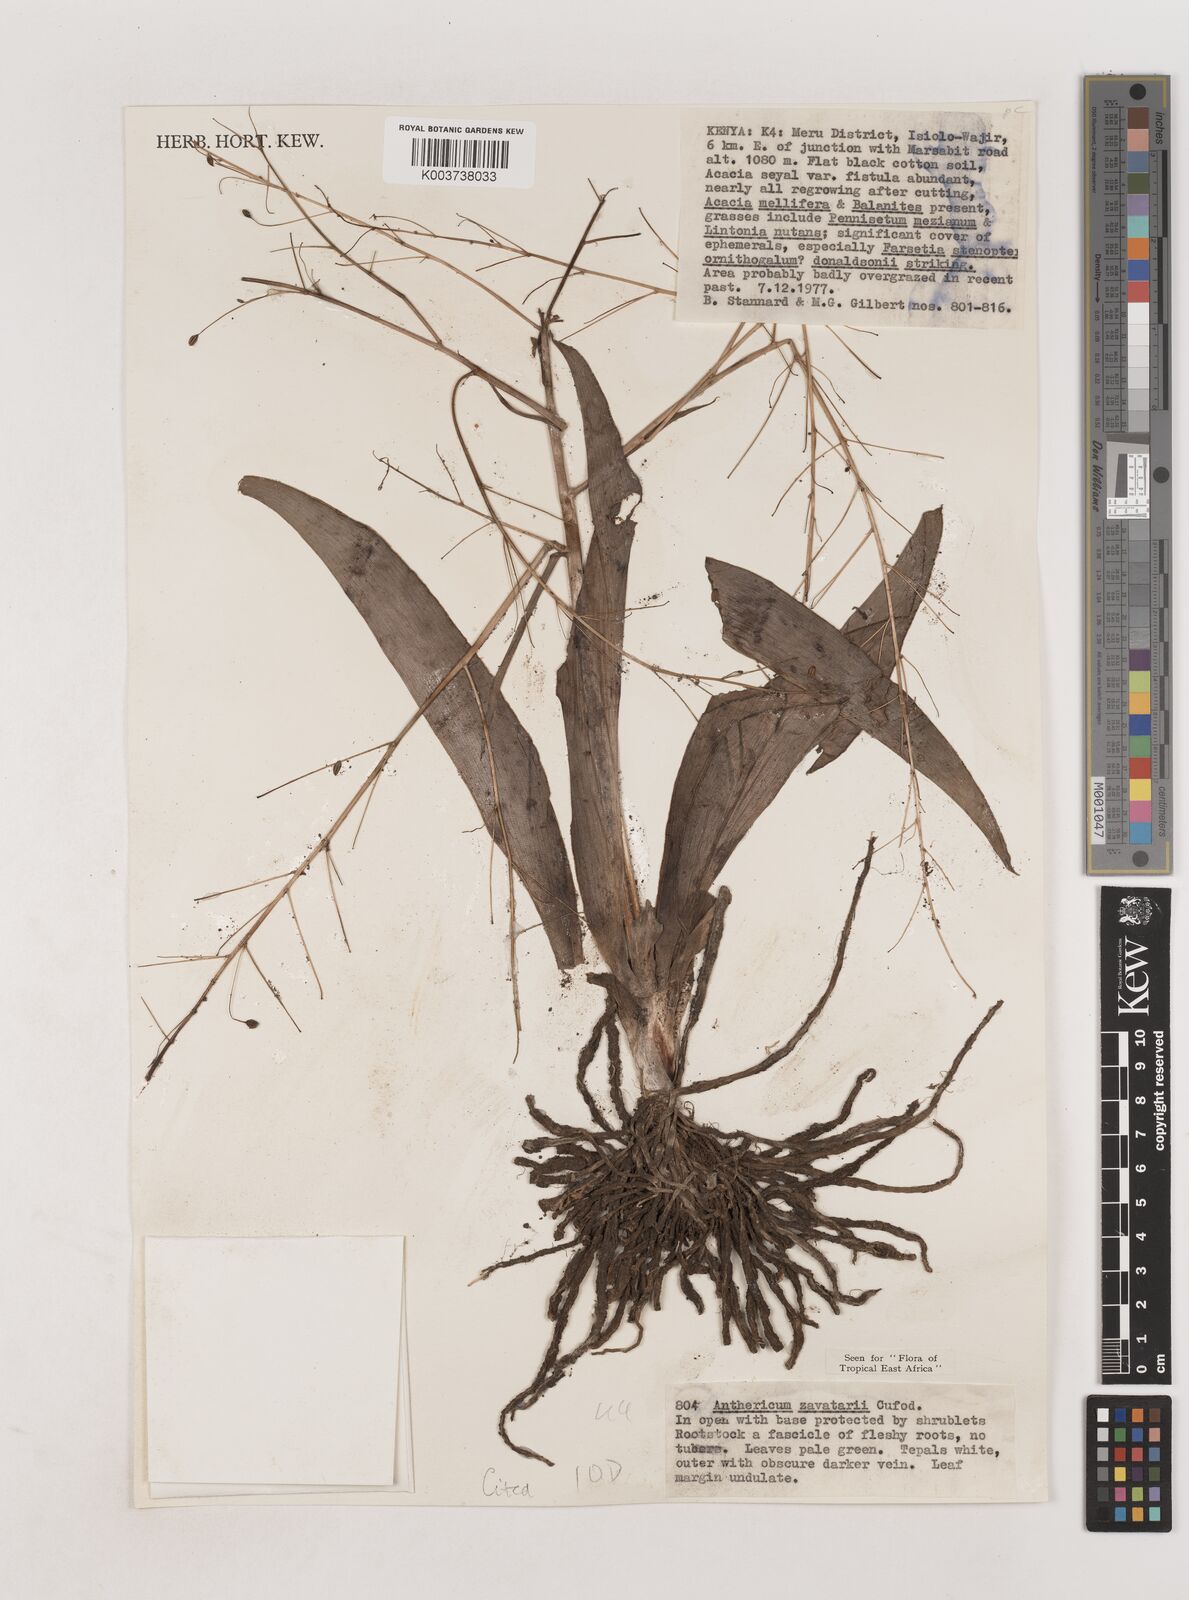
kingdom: Plantae
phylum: Tracheophyta
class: Liliopsida
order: Asparagales
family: Asparagaceae
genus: Chlorophytum
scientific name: Chlorophytum zavattarii
